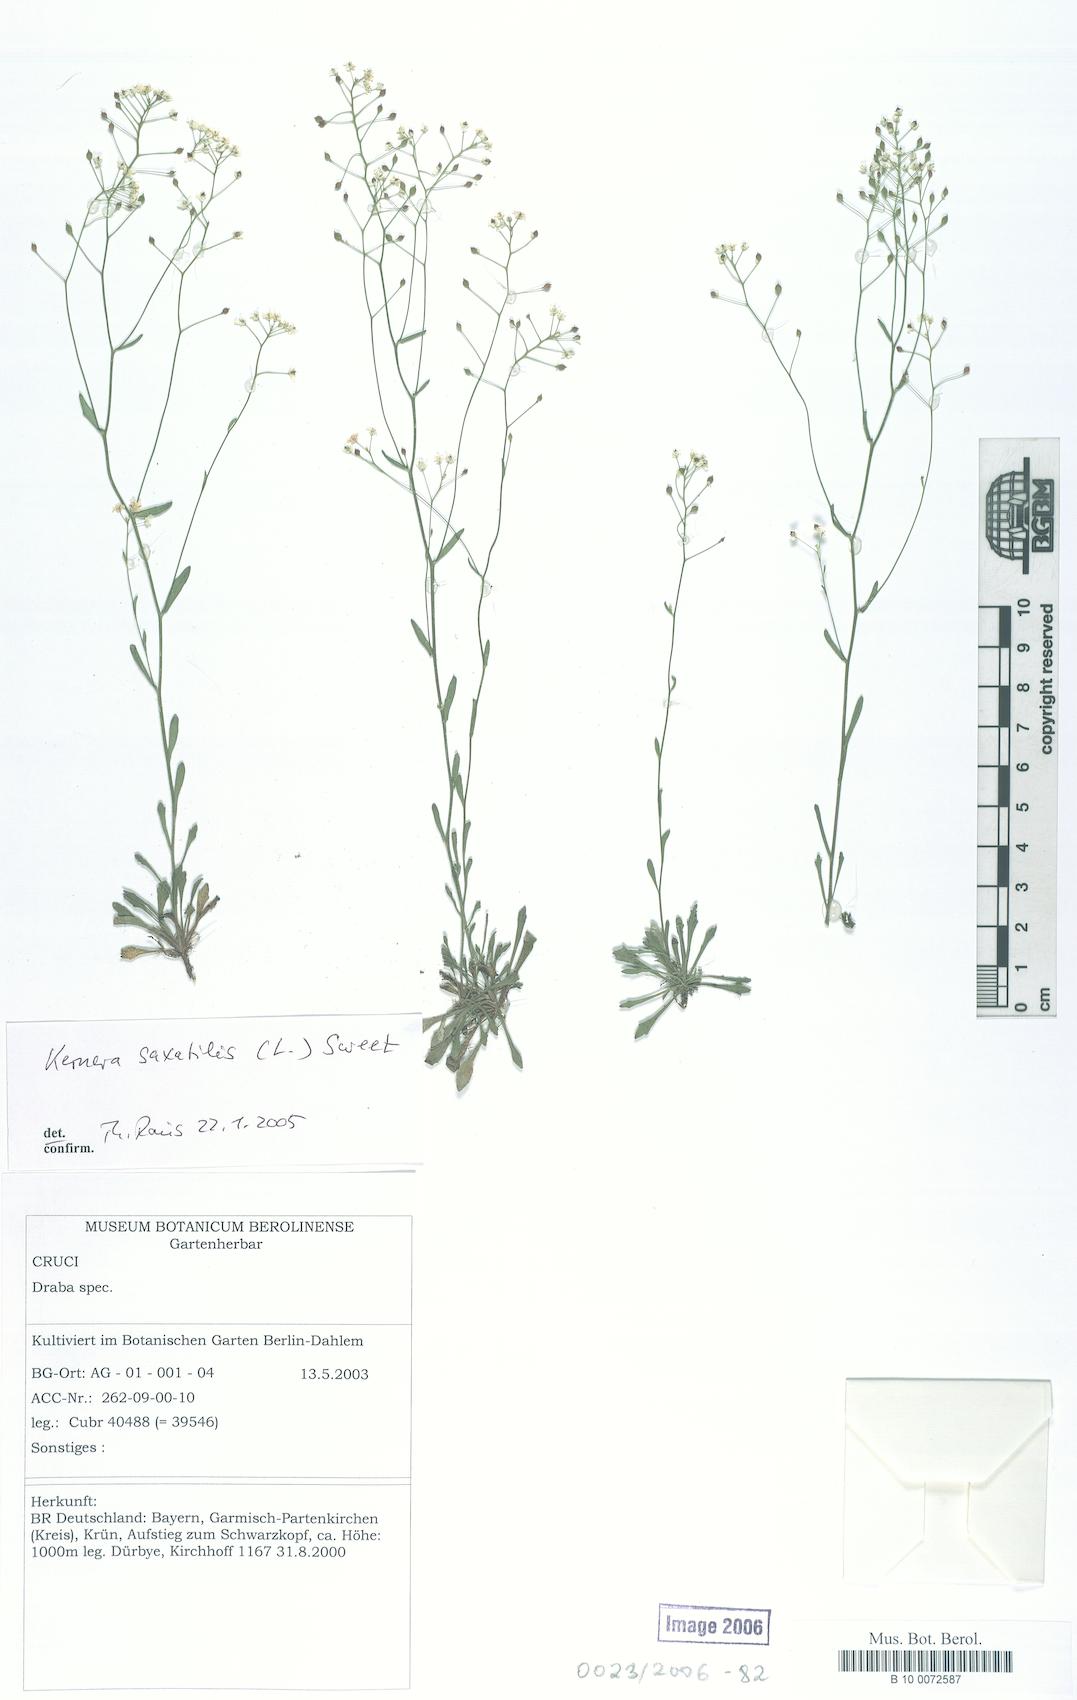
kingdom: Plantae
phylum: Tracheophyta
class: Magnoliopsida
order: Brassicales
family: Brassicaceae
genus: Kernera
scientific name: Kernera saxatilis
